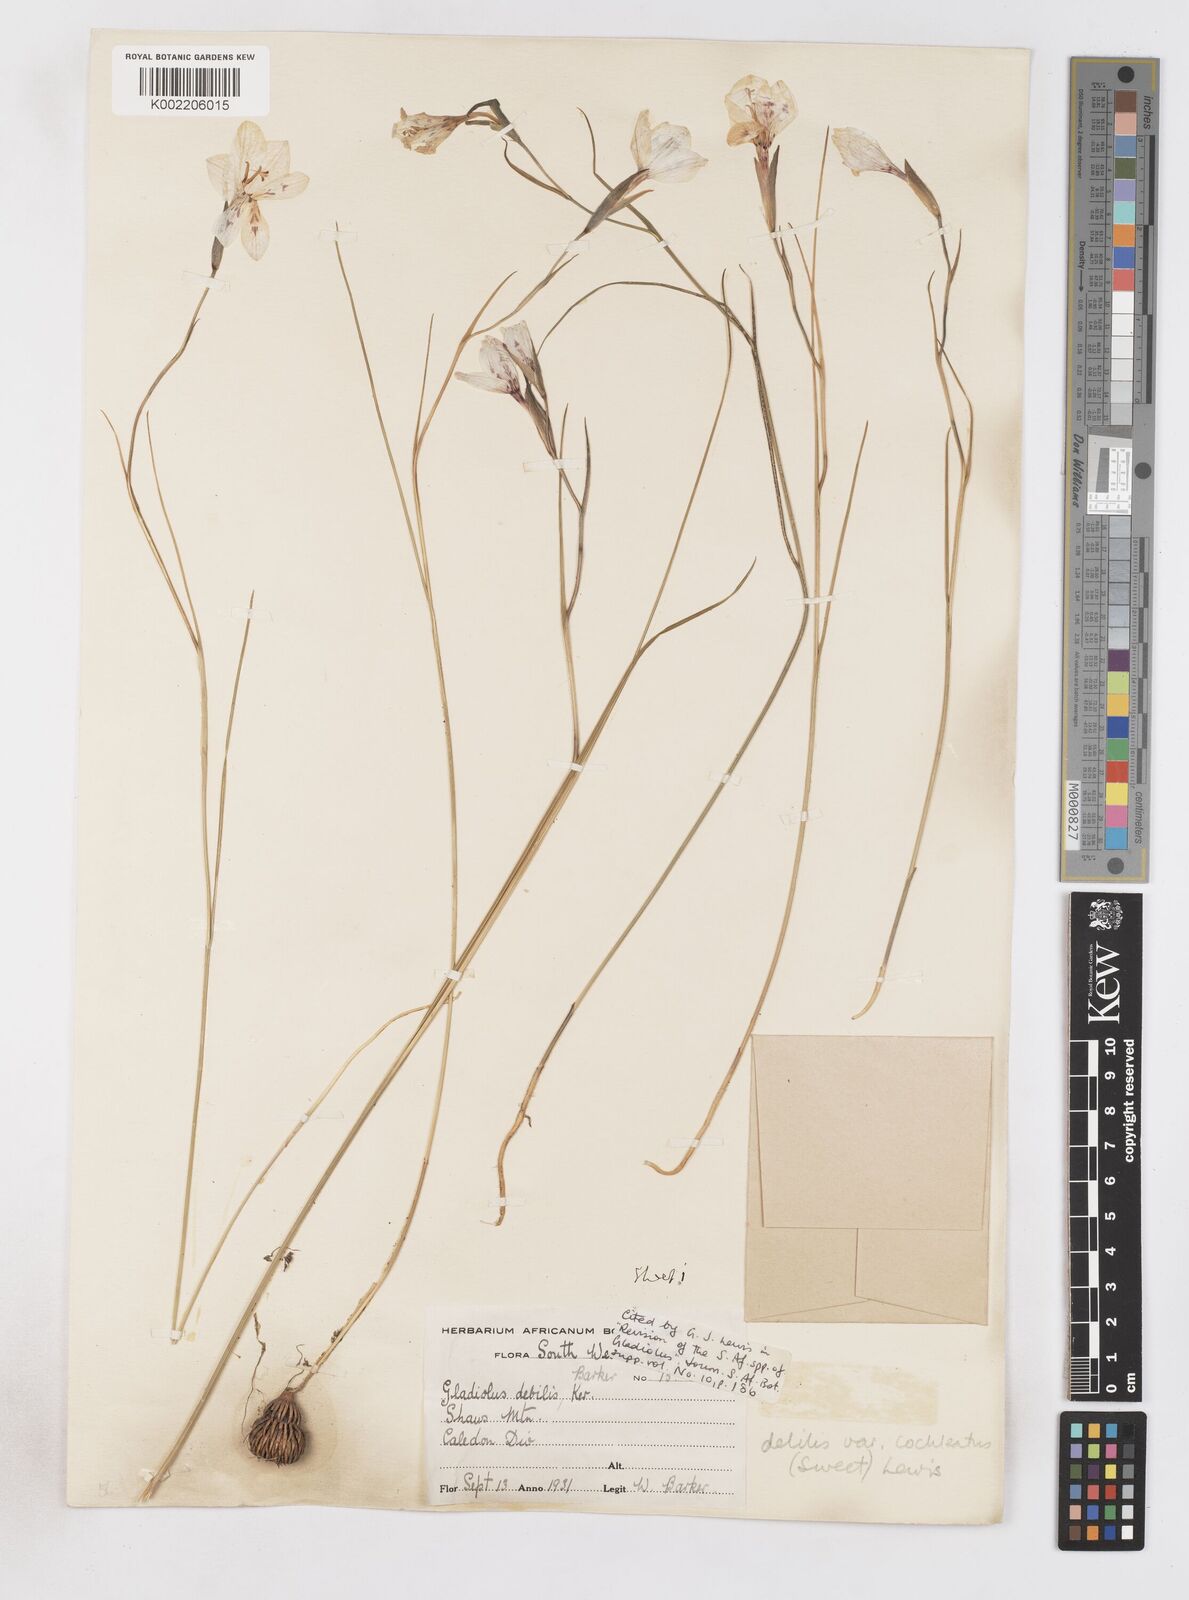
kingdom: Plantae
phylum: Tracheophyta
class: Liliopsida
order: Asparagales
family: Iridaceae
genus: Gladiolus
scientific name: Gladiolus debilis
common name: Painted-lady
